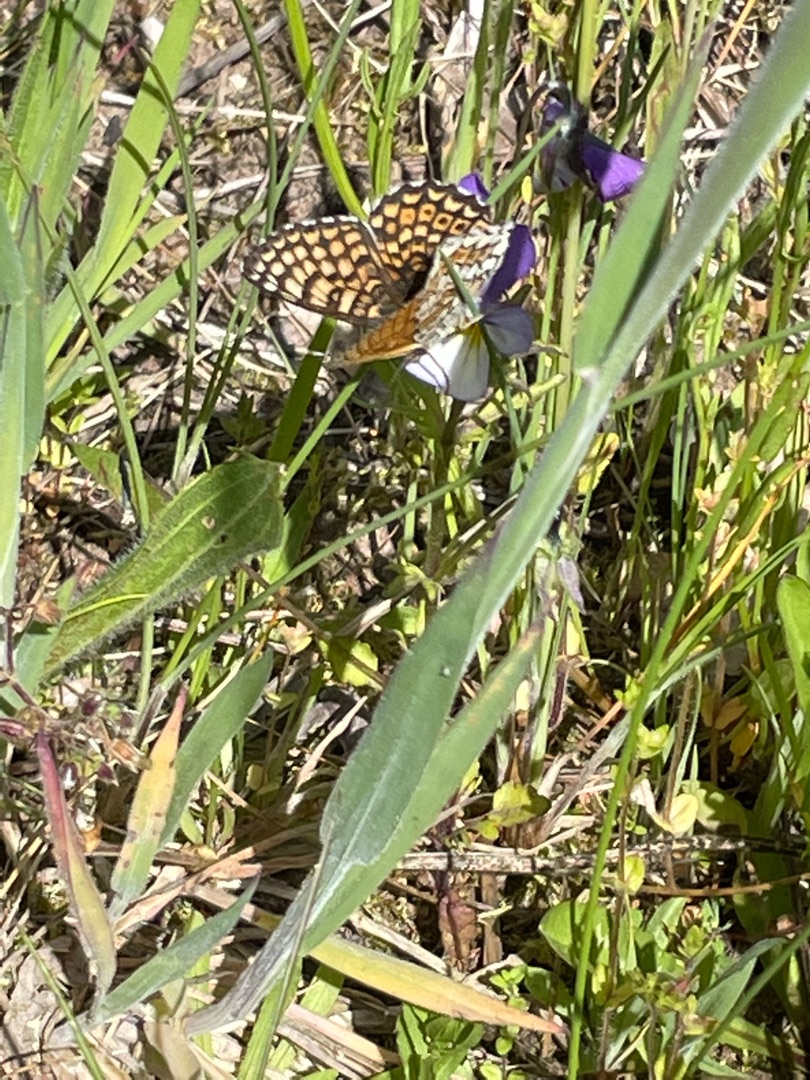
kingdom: Animalia
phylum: Arthropoda
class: Insecta
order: Lepidoptera
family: Nymphalidae
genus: Melitaea
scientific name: Melitaea cinxia
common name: Okkergul pletvinge
